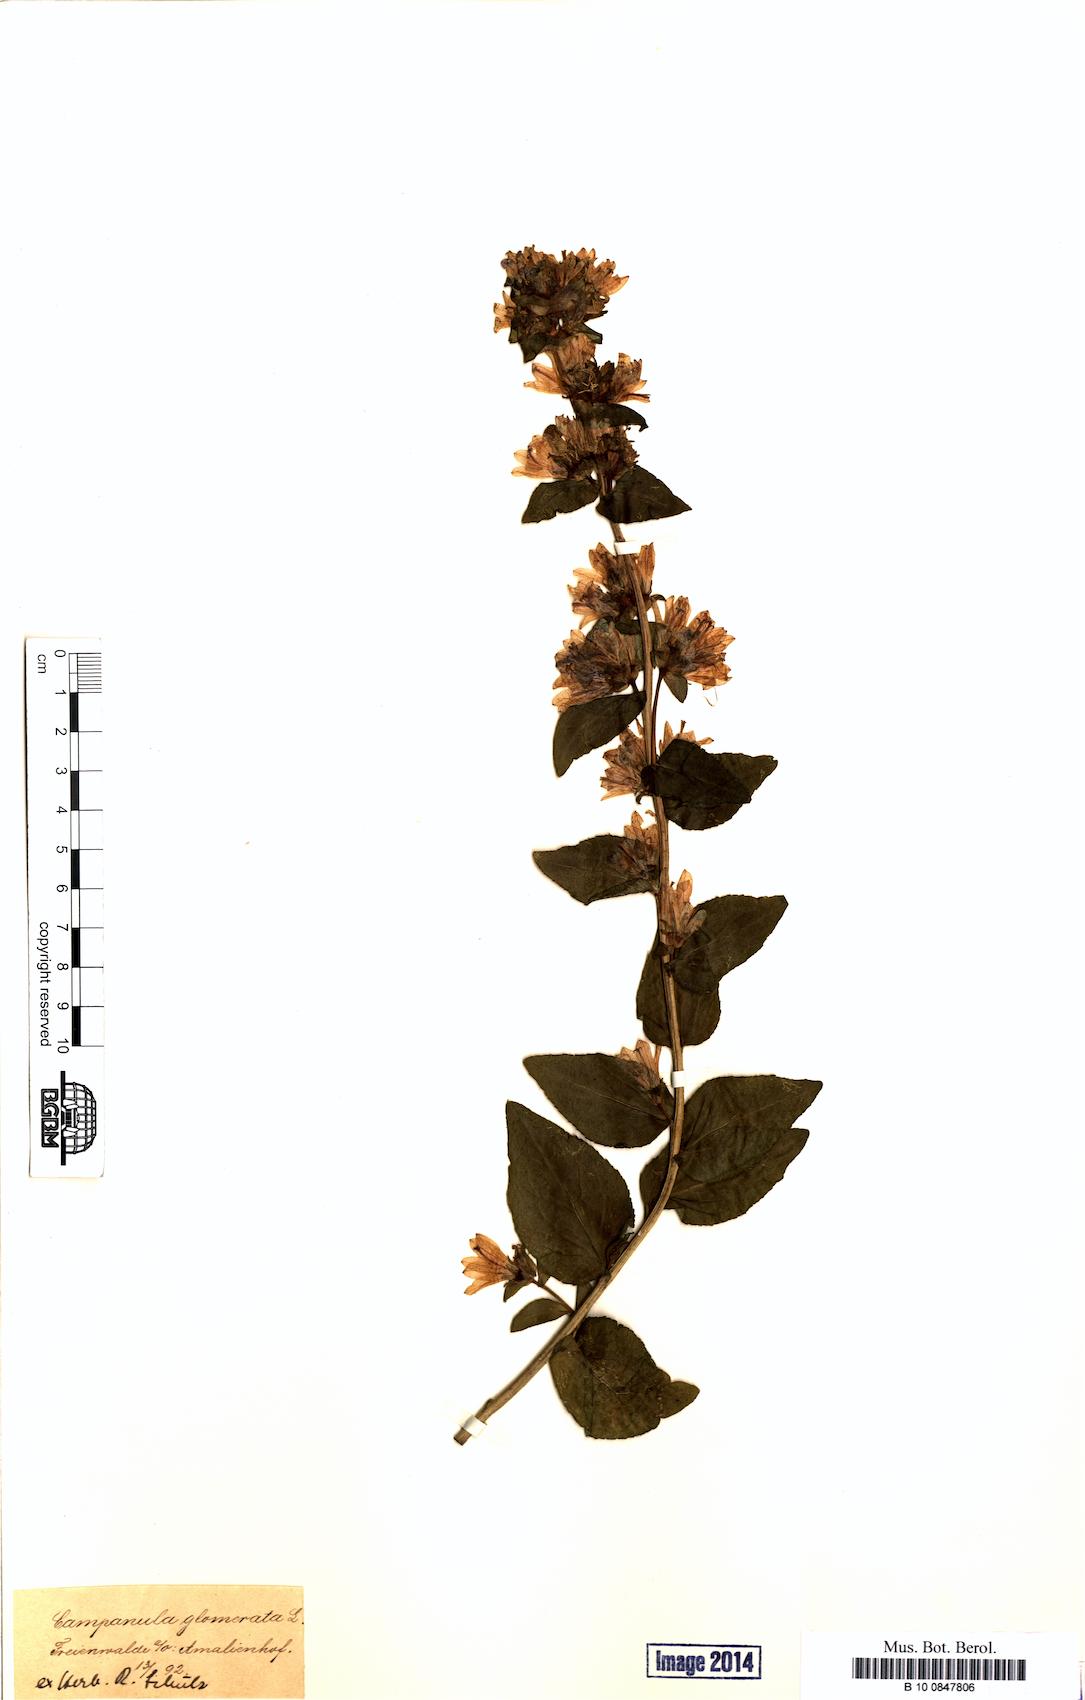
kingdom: Plantae
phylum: Tracheophyta
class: Magnoliopsida
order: Asterales
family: Campanulaceae
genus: Campanula
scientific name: Campanula glomerata
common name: Clustered bellflower
